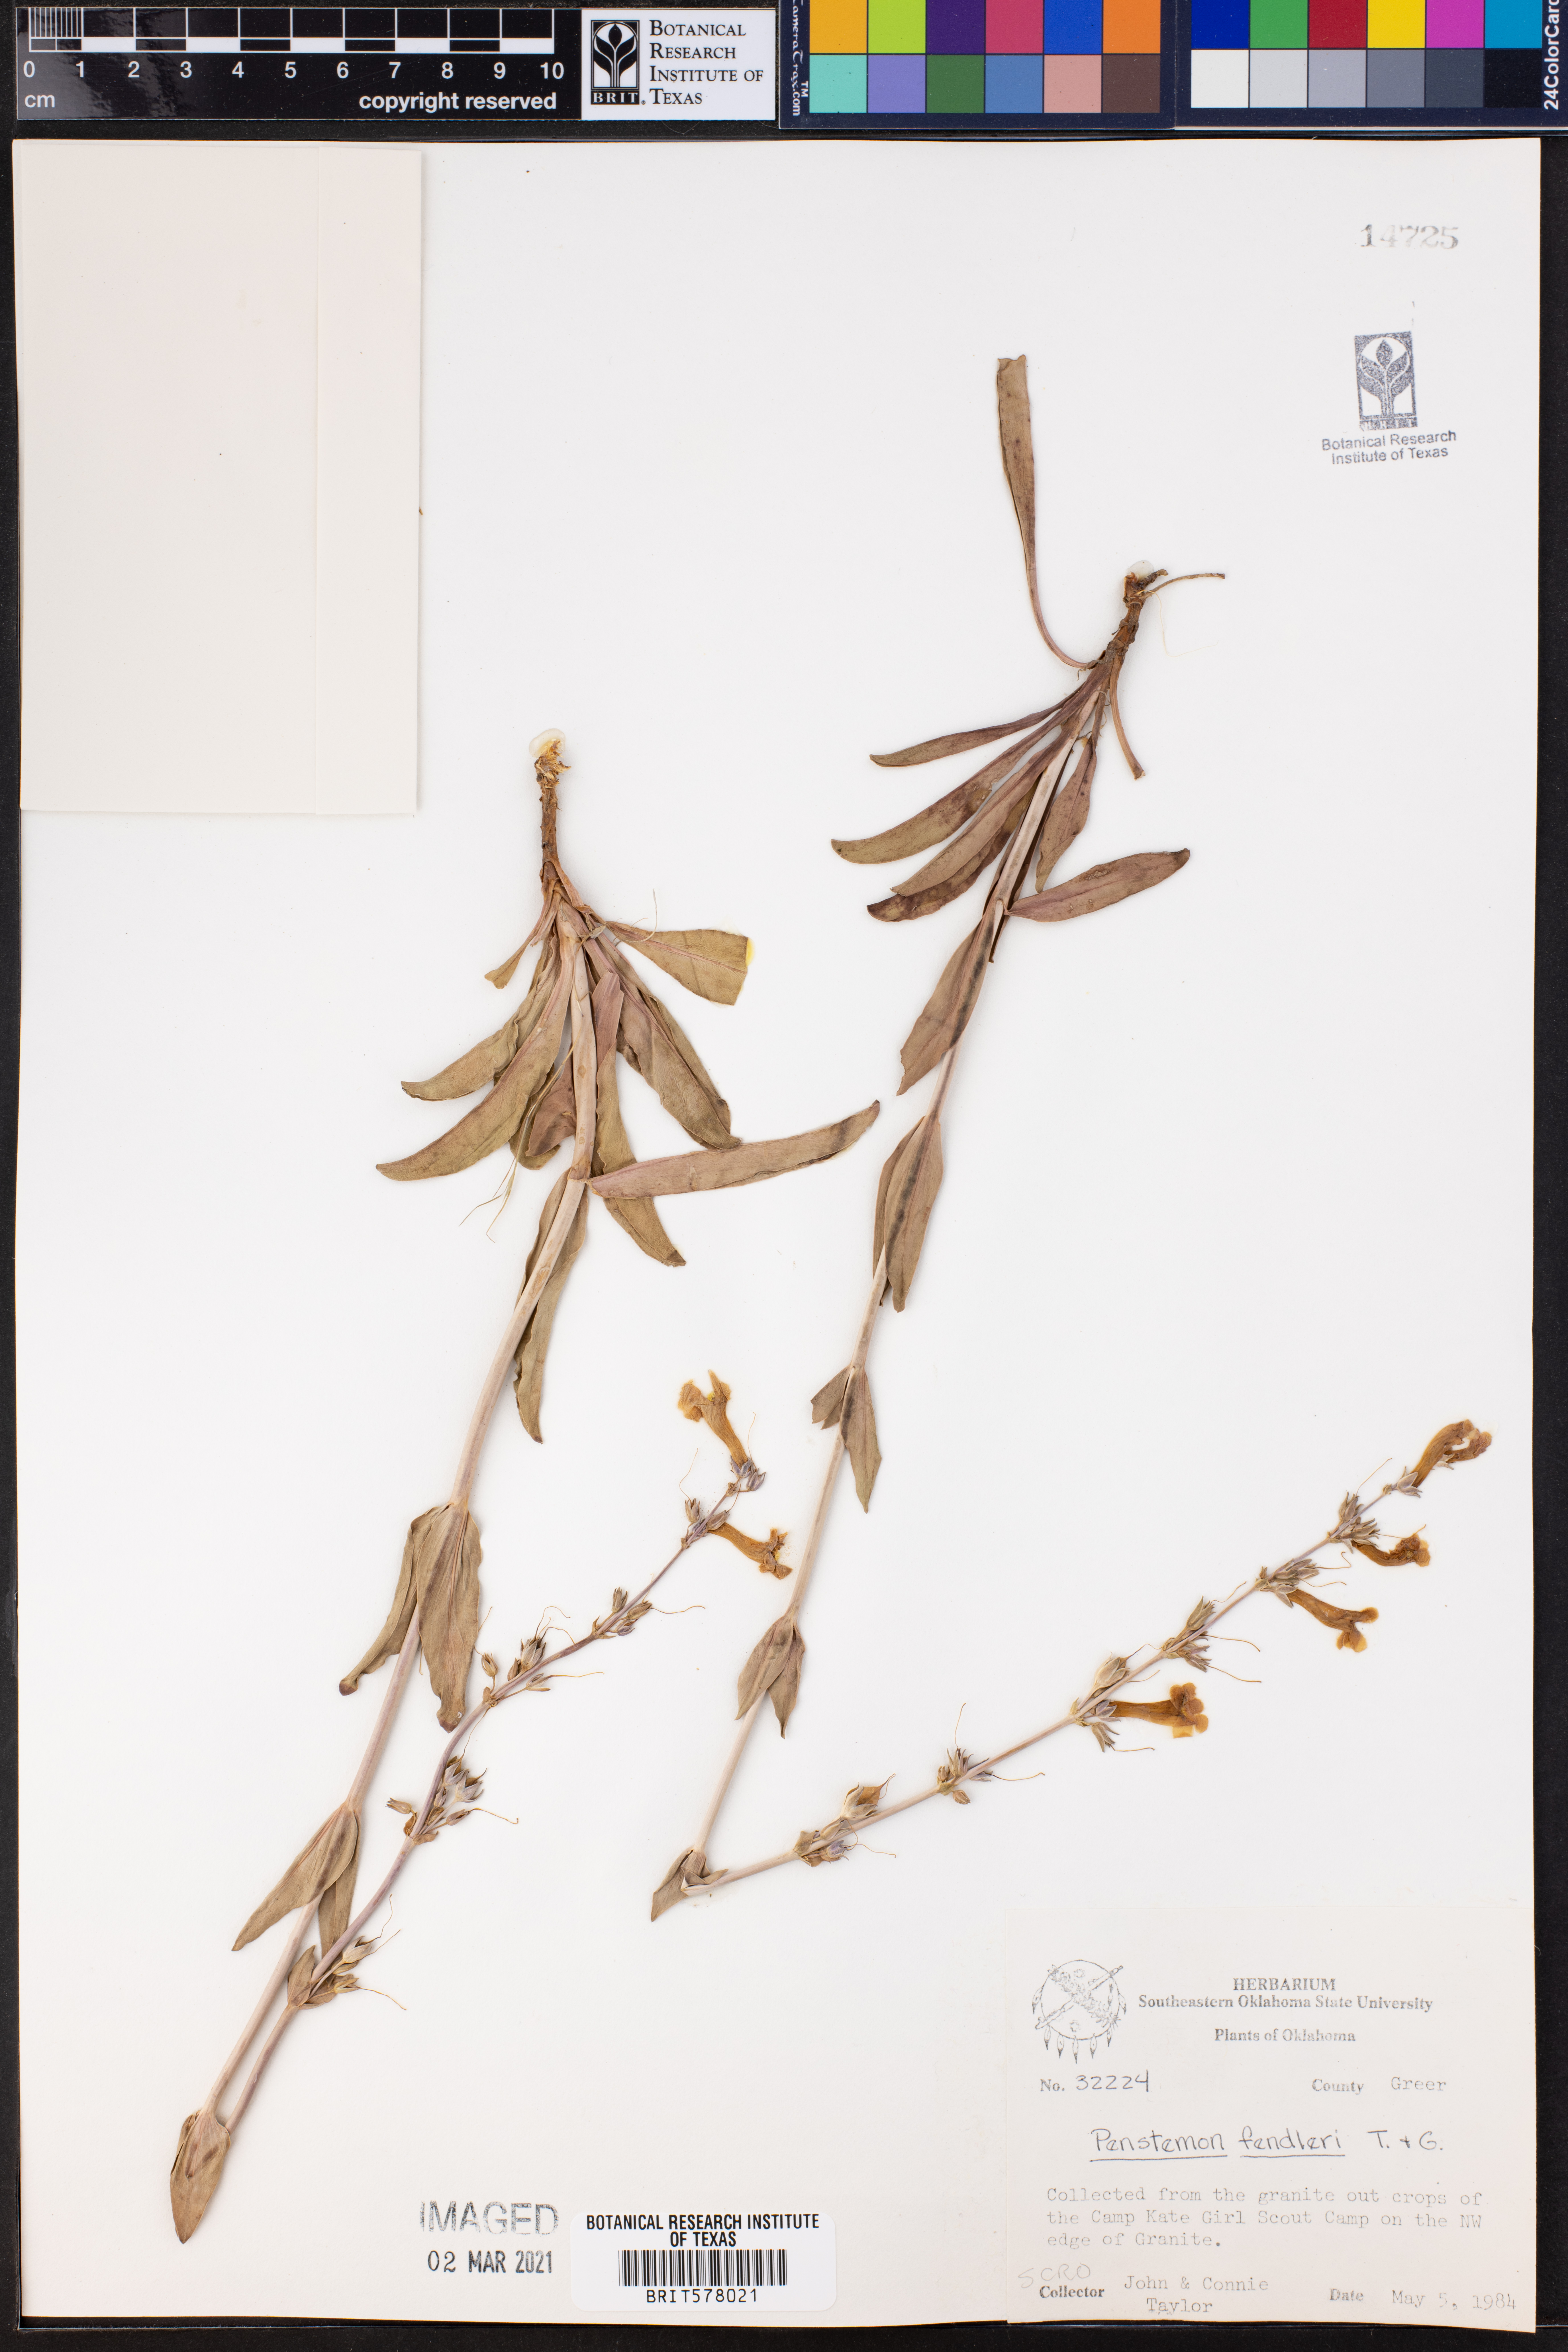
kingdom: Plantae
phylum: Tracheophyta
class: Magnoliopsida
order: Lamiales
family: Plantaginaceae
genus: Penstemon
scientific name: Penstemon fendleri
